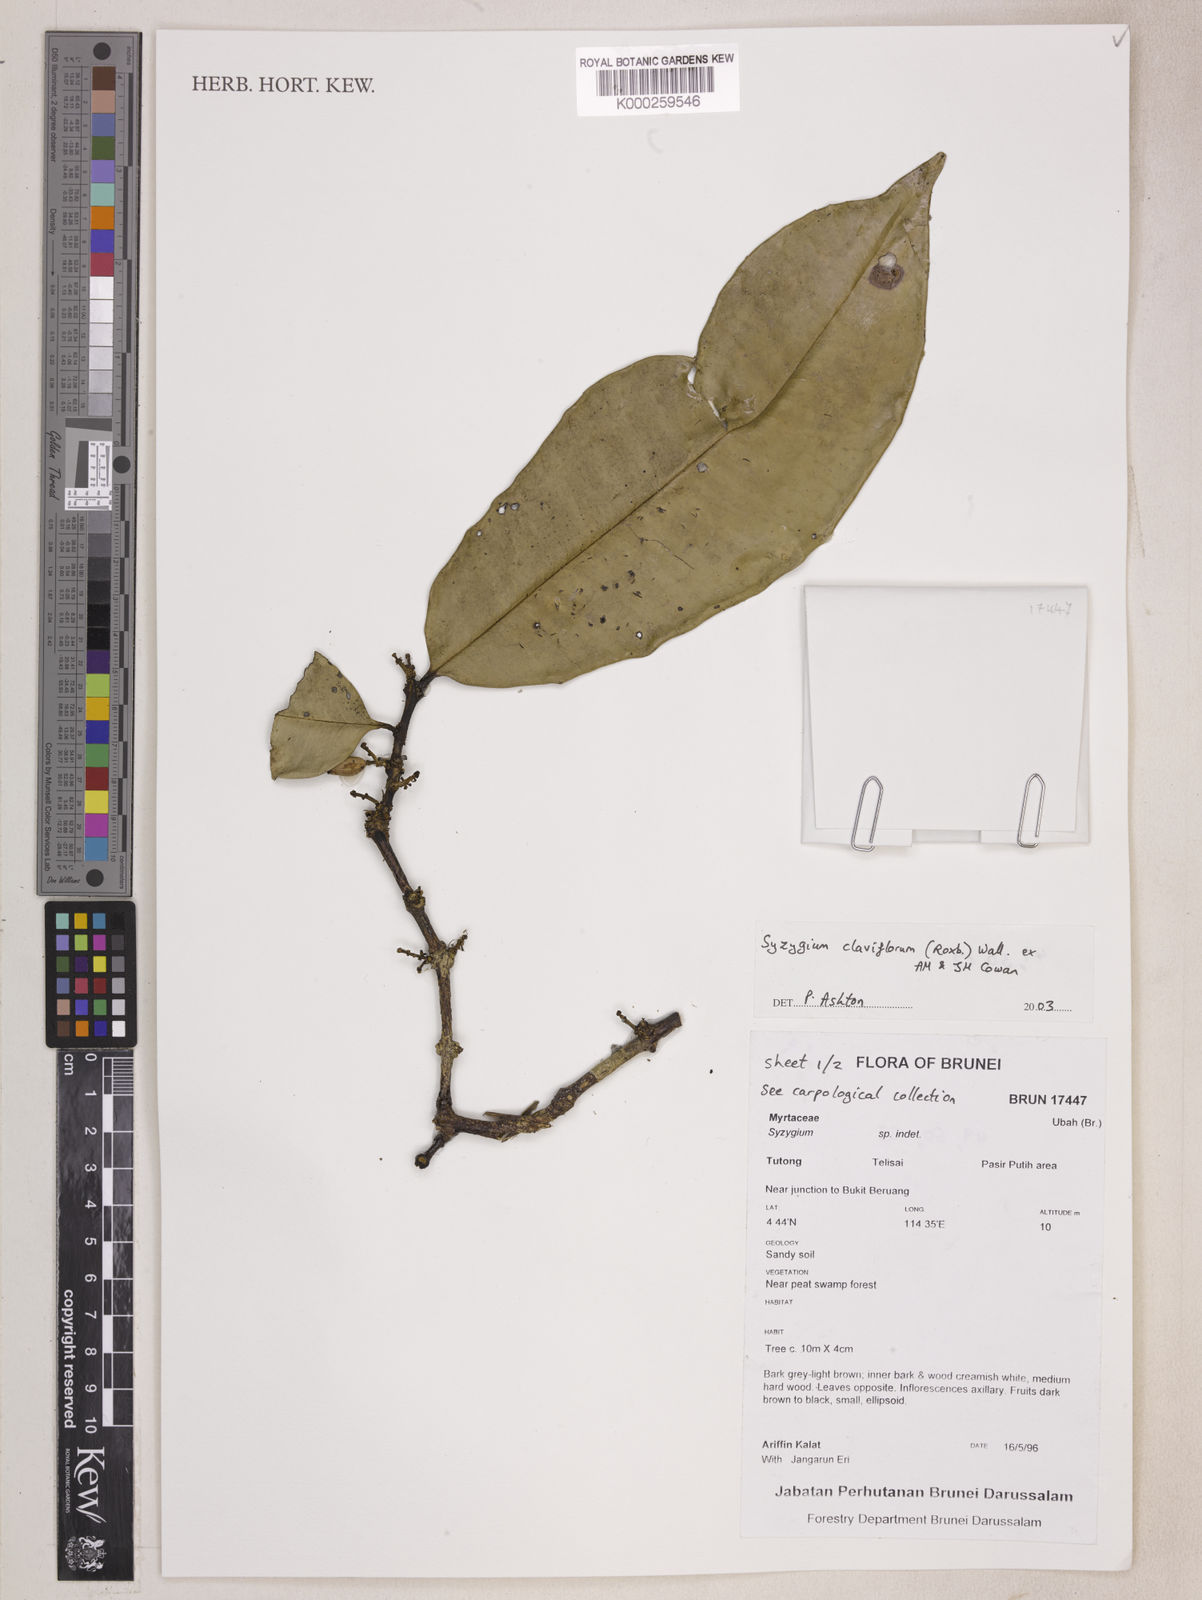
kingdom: Plantae
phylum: Tracheophyta
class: Magnoliopsida
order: Myrtales
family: Myrtaceae
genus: Syzygium
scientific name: Syzygium claviflorum
